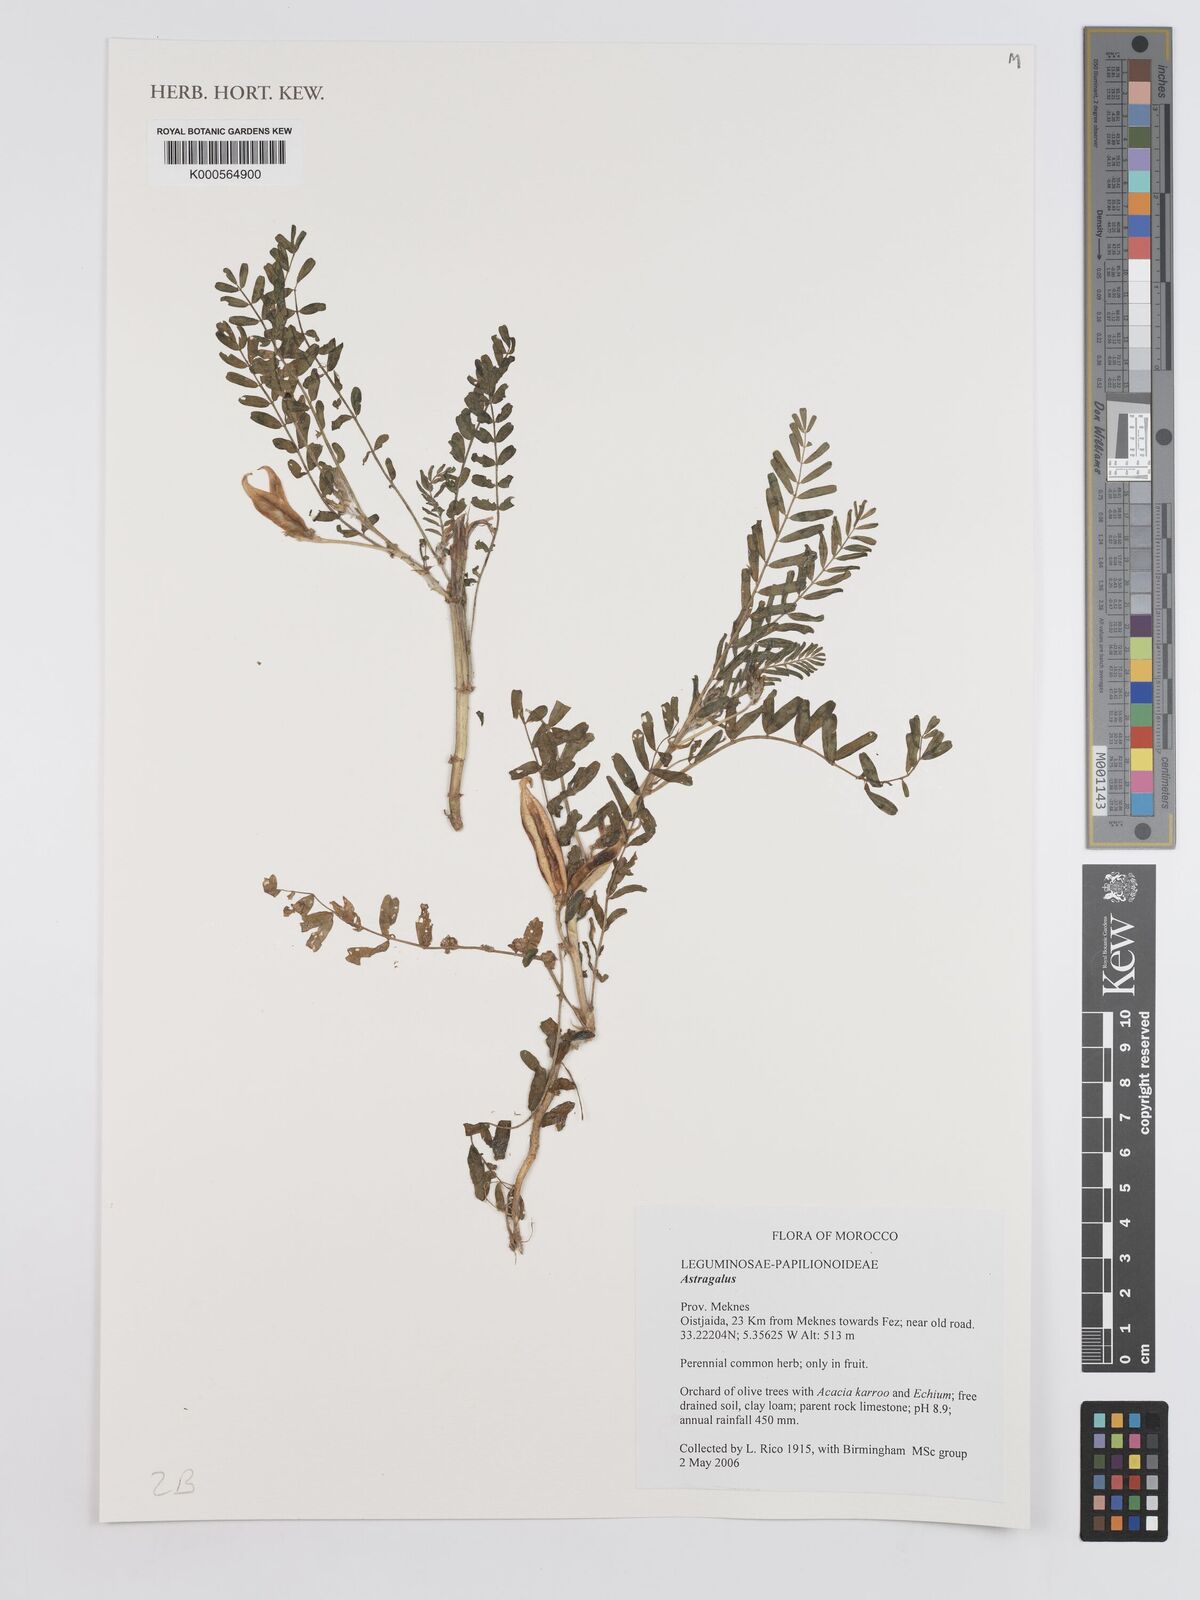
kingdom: Plantae
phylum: Tracheophyta
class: Magnoliopsida
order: Fabales
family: Fabaceae
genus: Astragalus
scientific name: Astragalus
